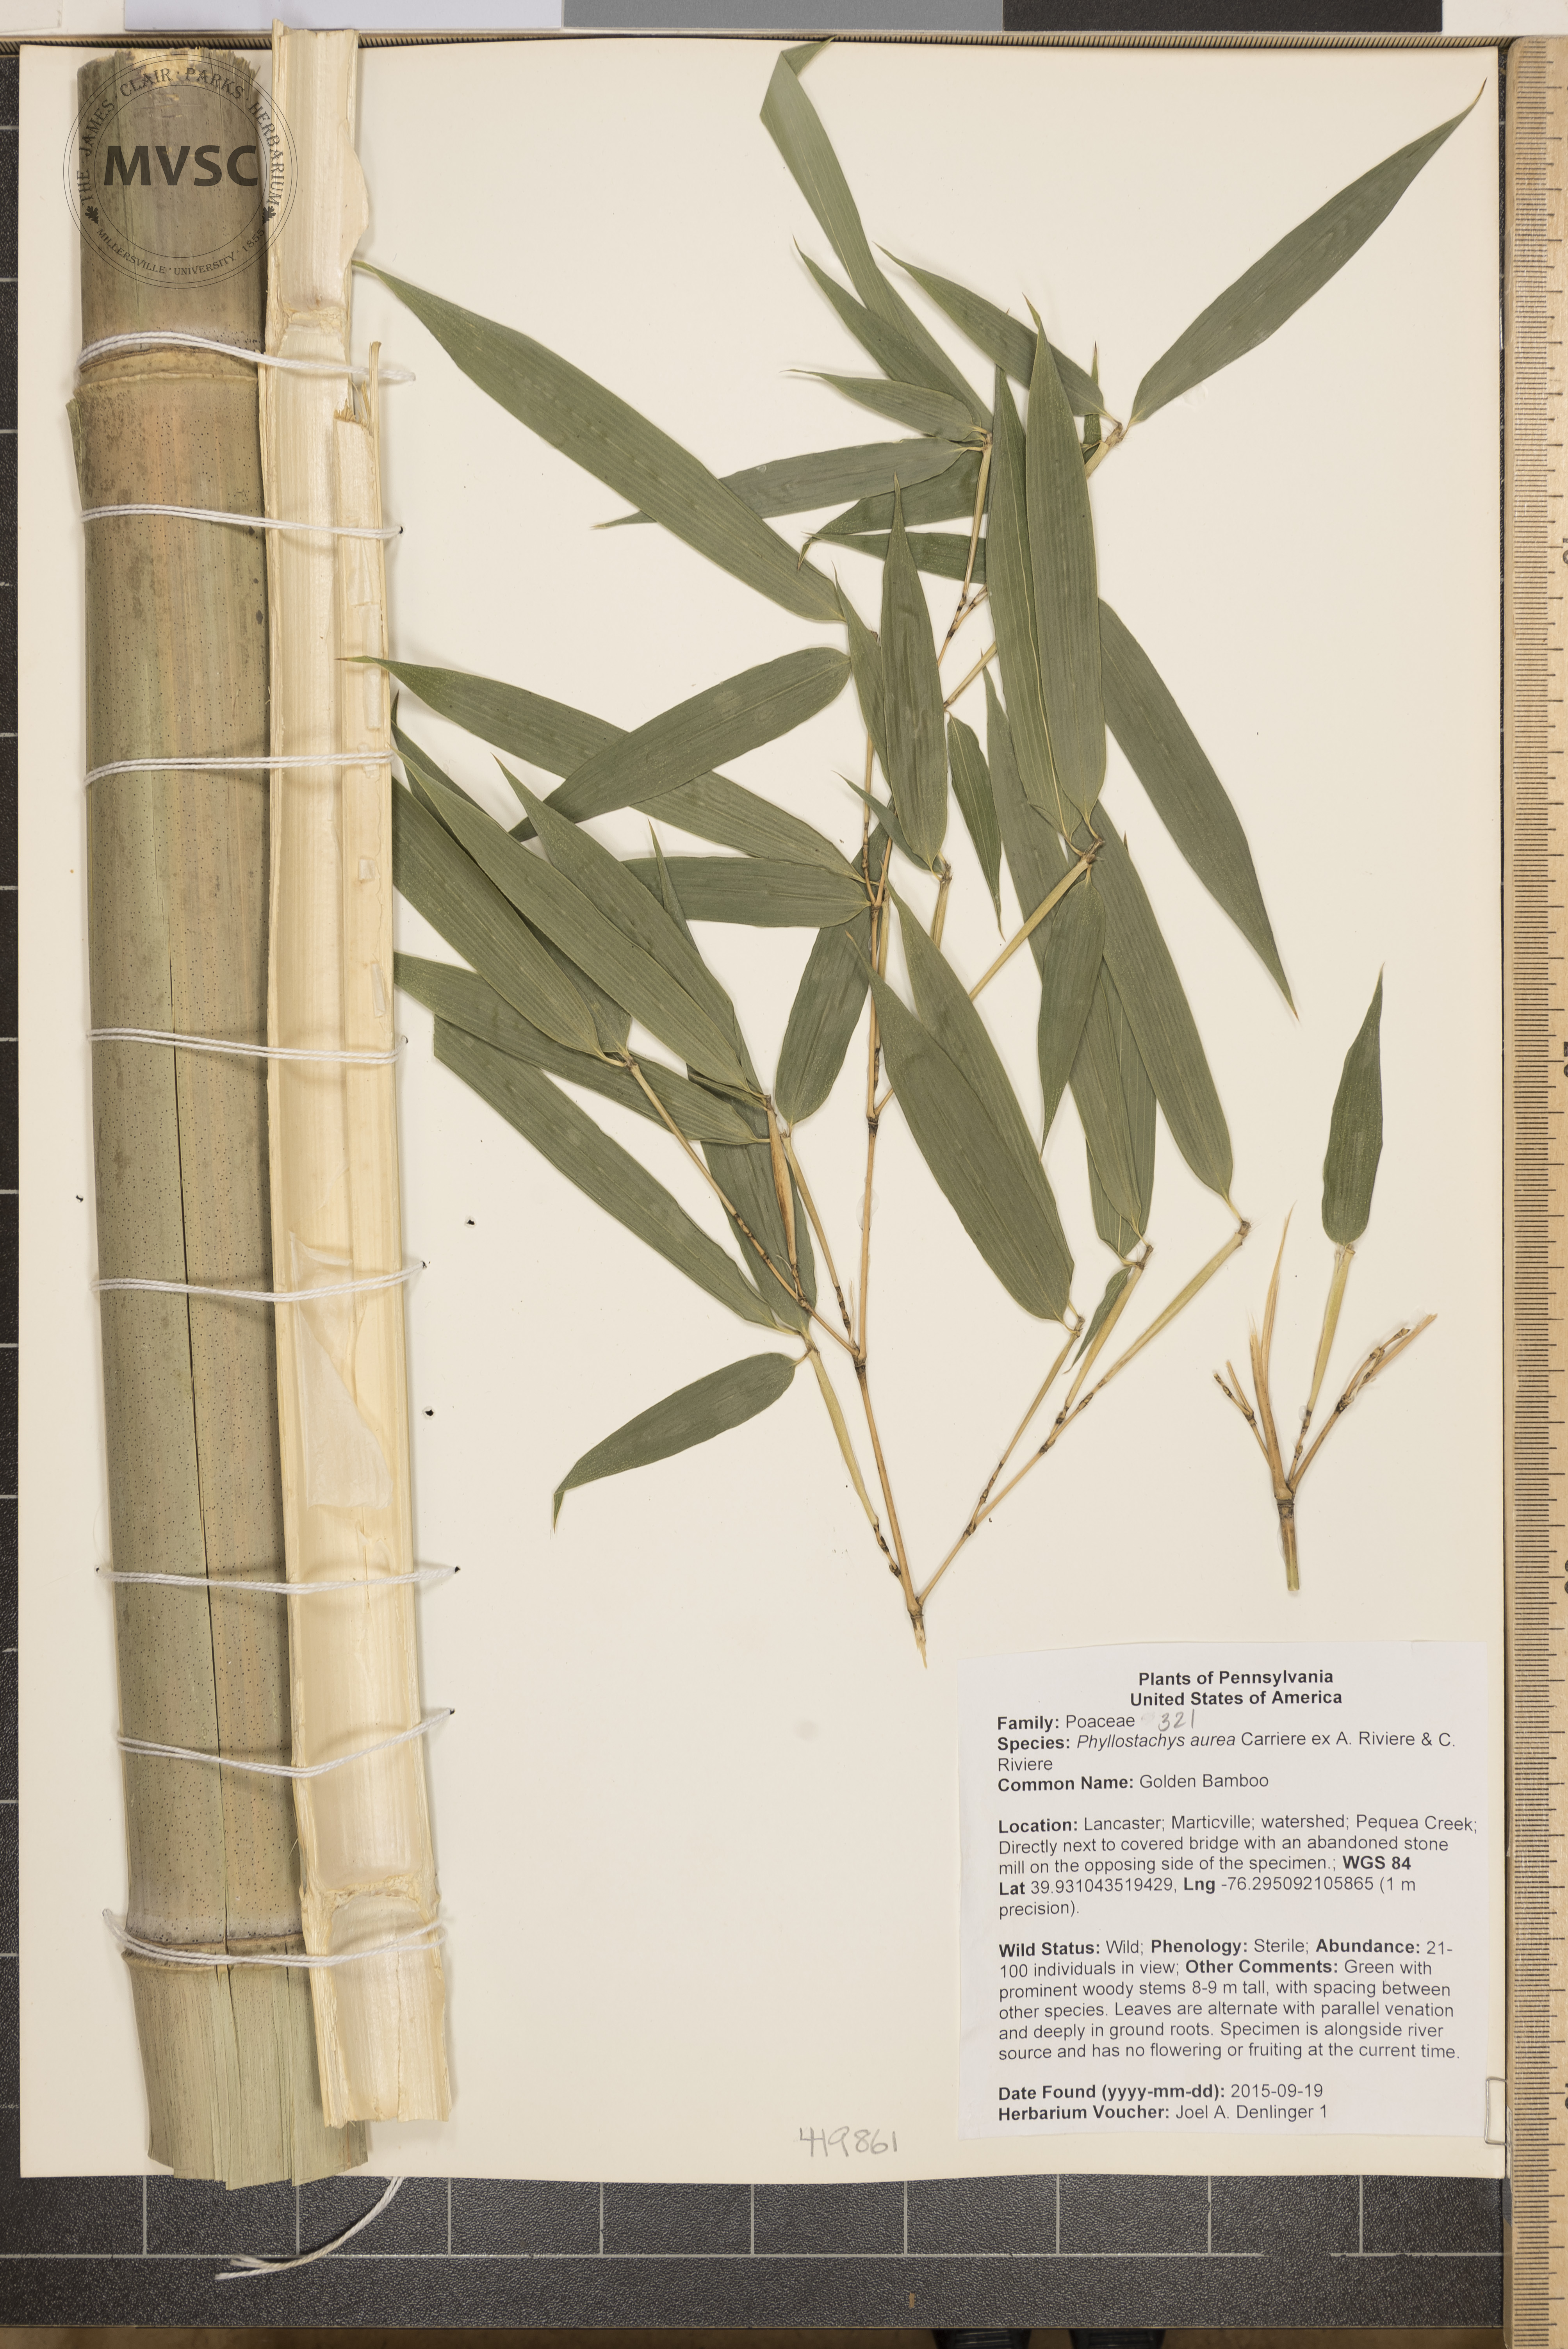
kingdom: Plantae
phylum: Tracheophyta
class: Liliopsida
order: Poales
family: Poaceae
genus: Phyllostachys
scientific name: Phyllostachys aureosulcata
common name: Bamboo
